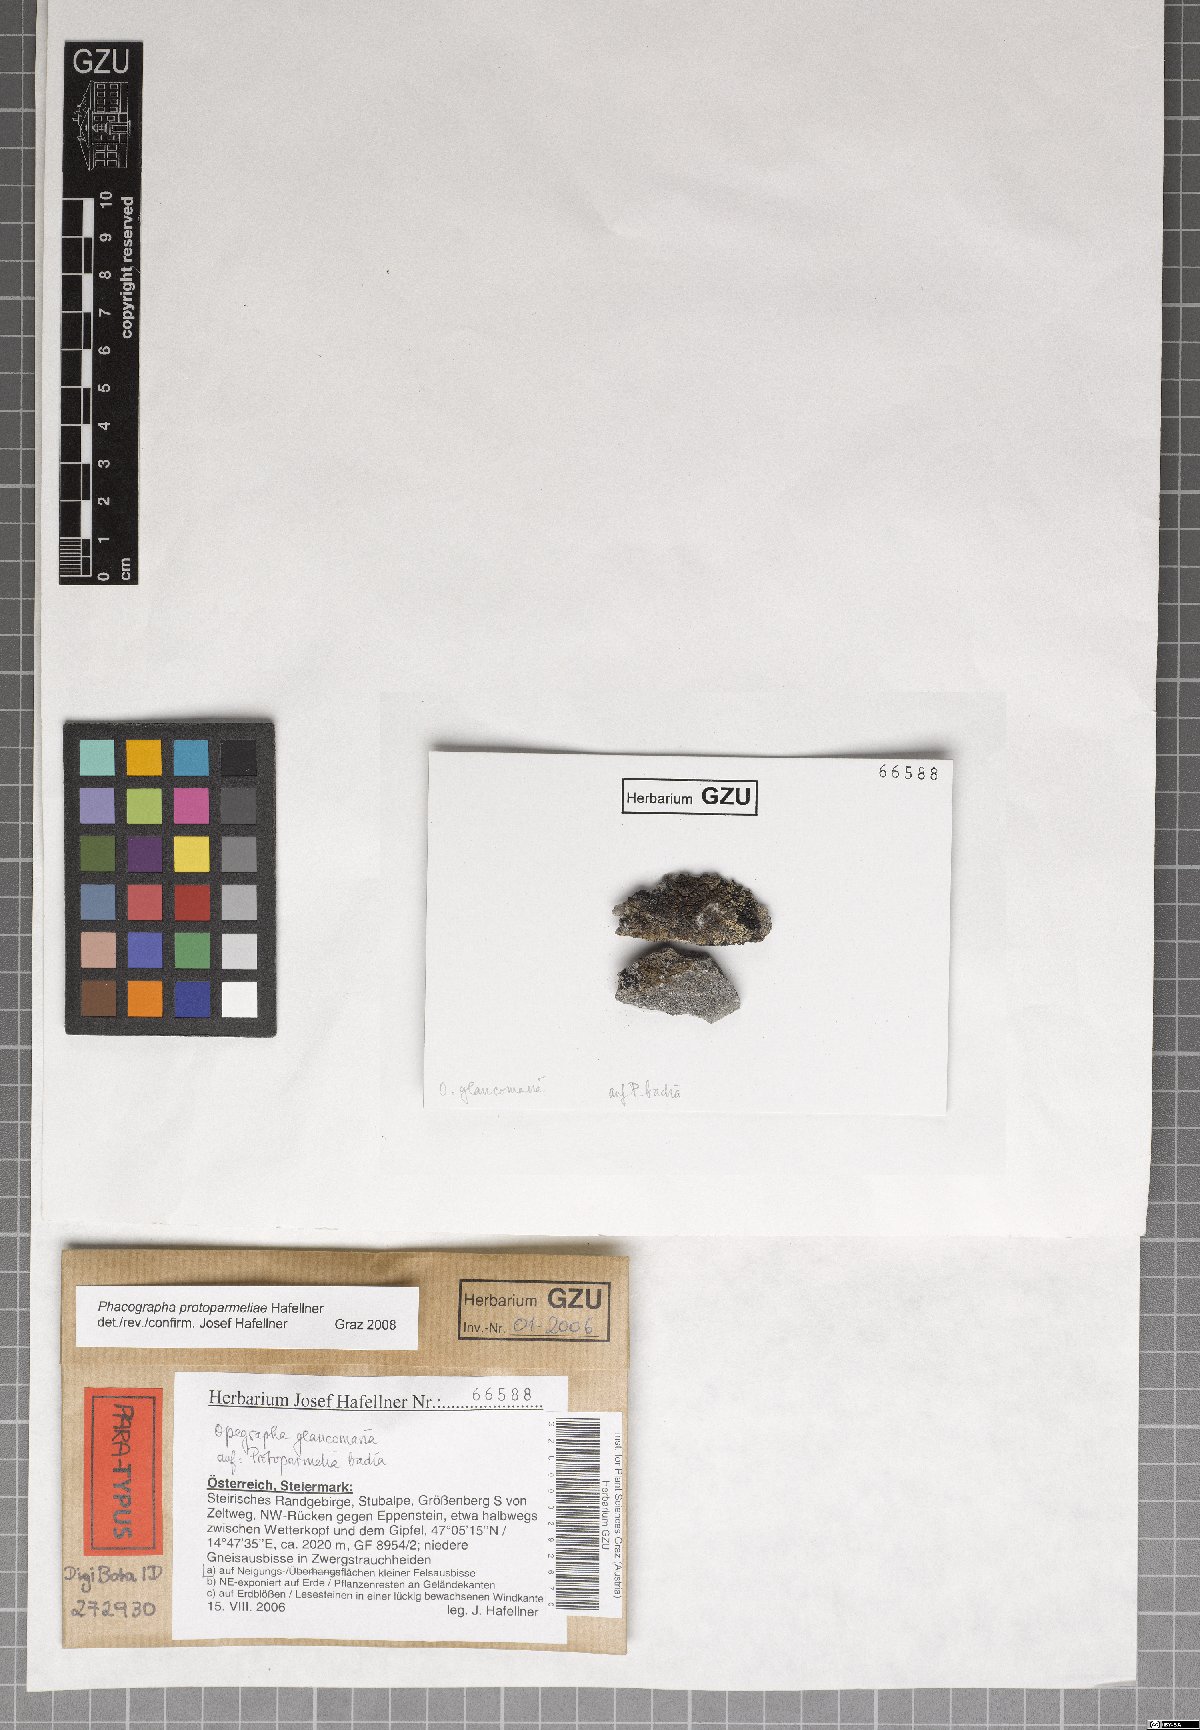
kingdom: Fungi
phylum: Ascomycota
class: Arthoniomycetes
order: Arthoniales
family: Roccellaceae
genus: Phacographa
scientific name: Phacographa protoparmeliae
